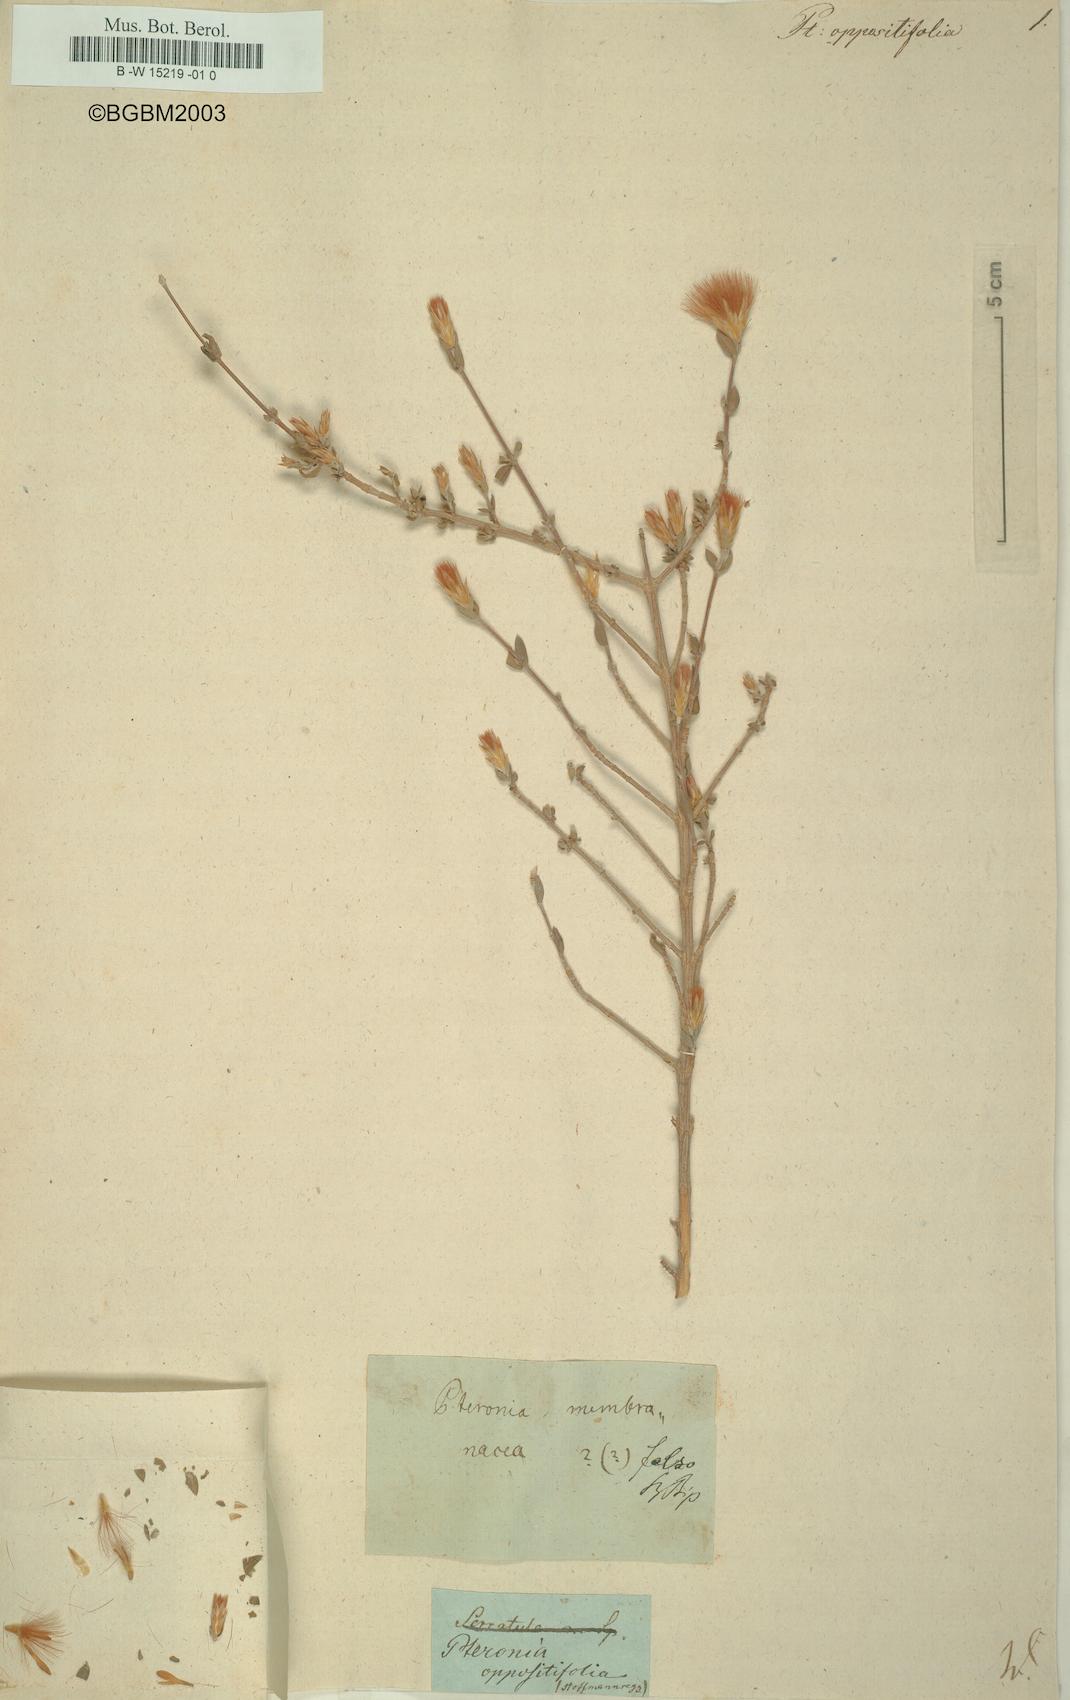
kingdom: Plantae
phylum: Tracheophyta
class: Magnoliopsida
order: Asterales
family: Asteraceae
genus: Pteronia
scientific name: Pteronia oppositifolia
